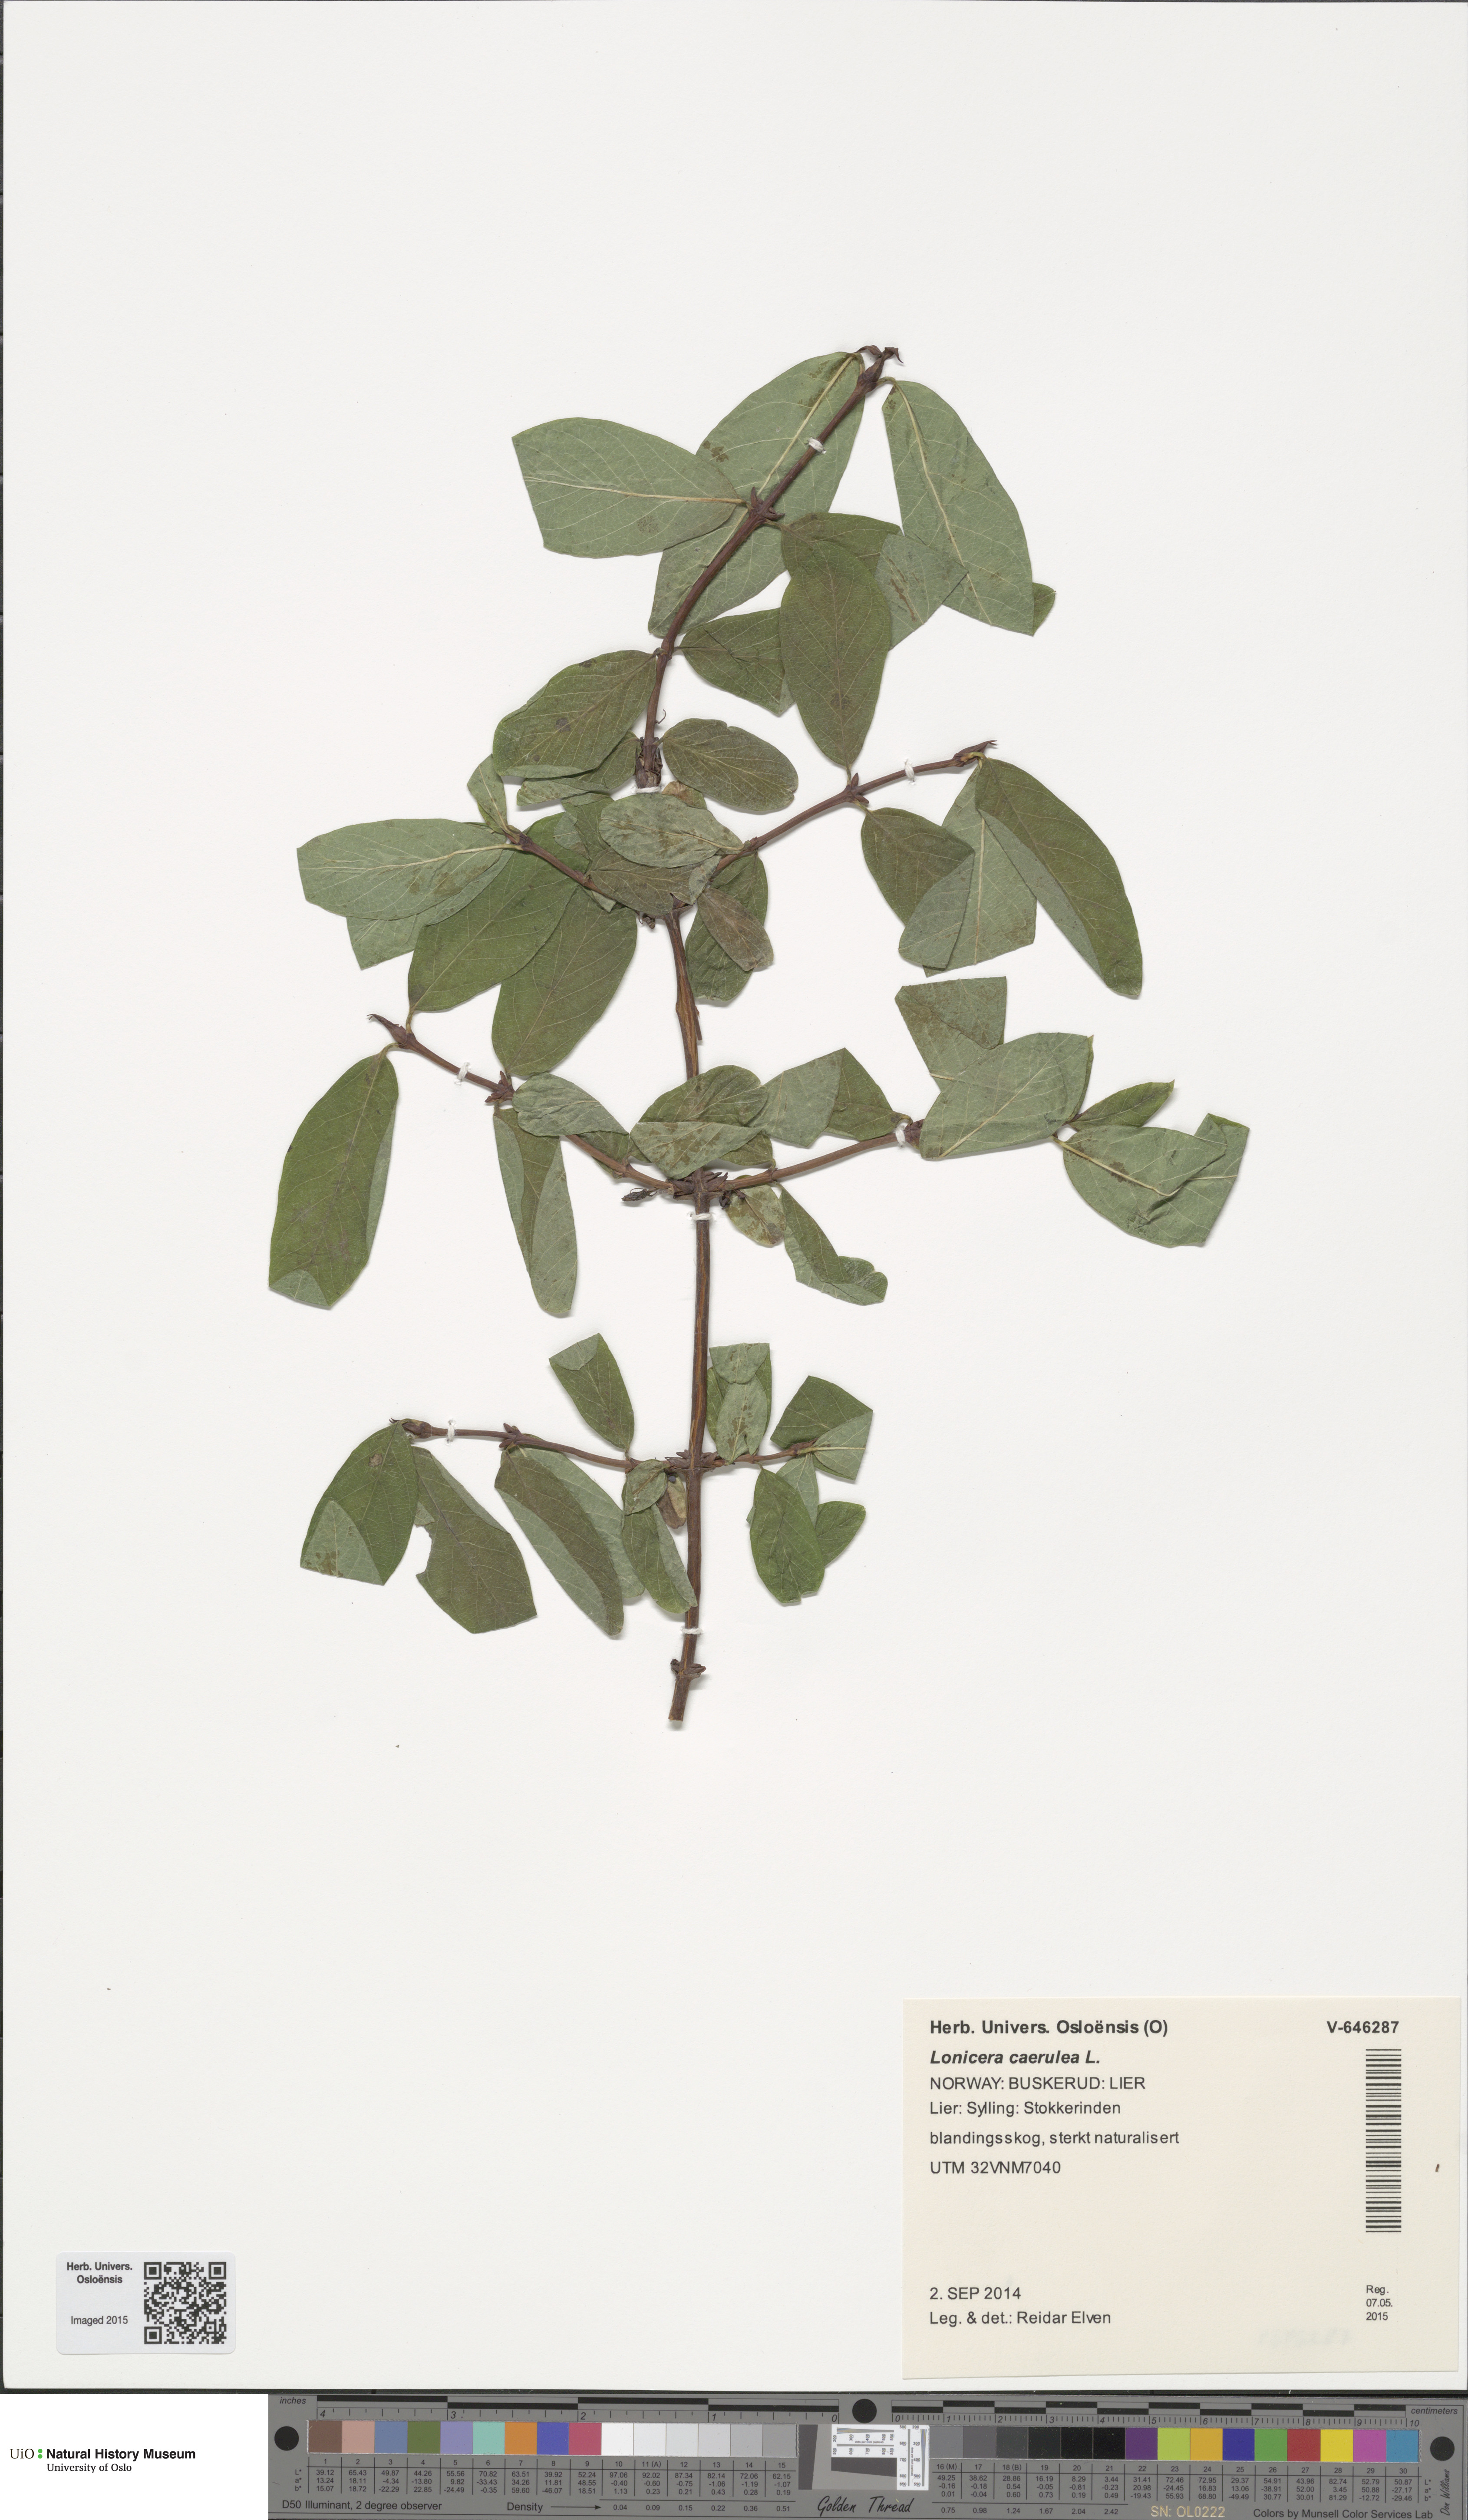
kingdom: Plantae
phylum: Tracheophyta
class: Magnoliopsida
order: Dipsacales
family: Caprifoliaceae
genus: Lonicera
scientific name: Lonicera caerulea
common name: Blue honeysuckle
